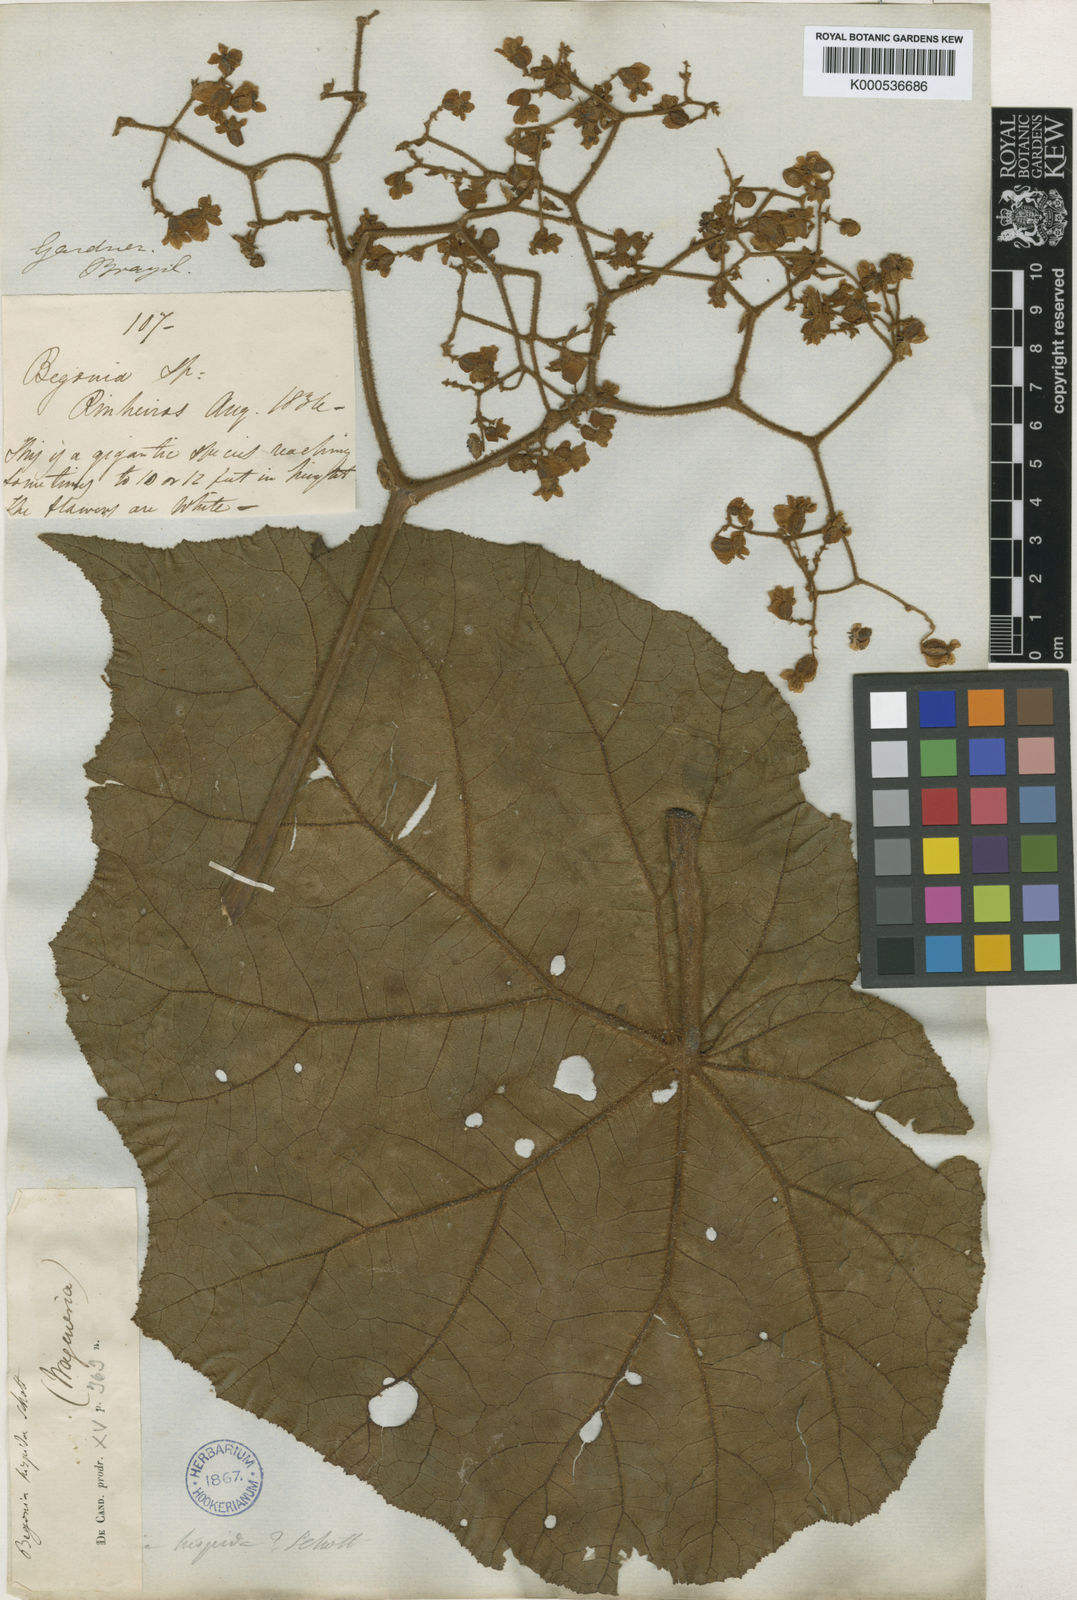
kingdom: Plantae
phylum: Tracheophyta
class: Magnoliopsida
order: Cucurbitales
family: Begoniaceae
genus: Begonia
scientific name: Begonia
